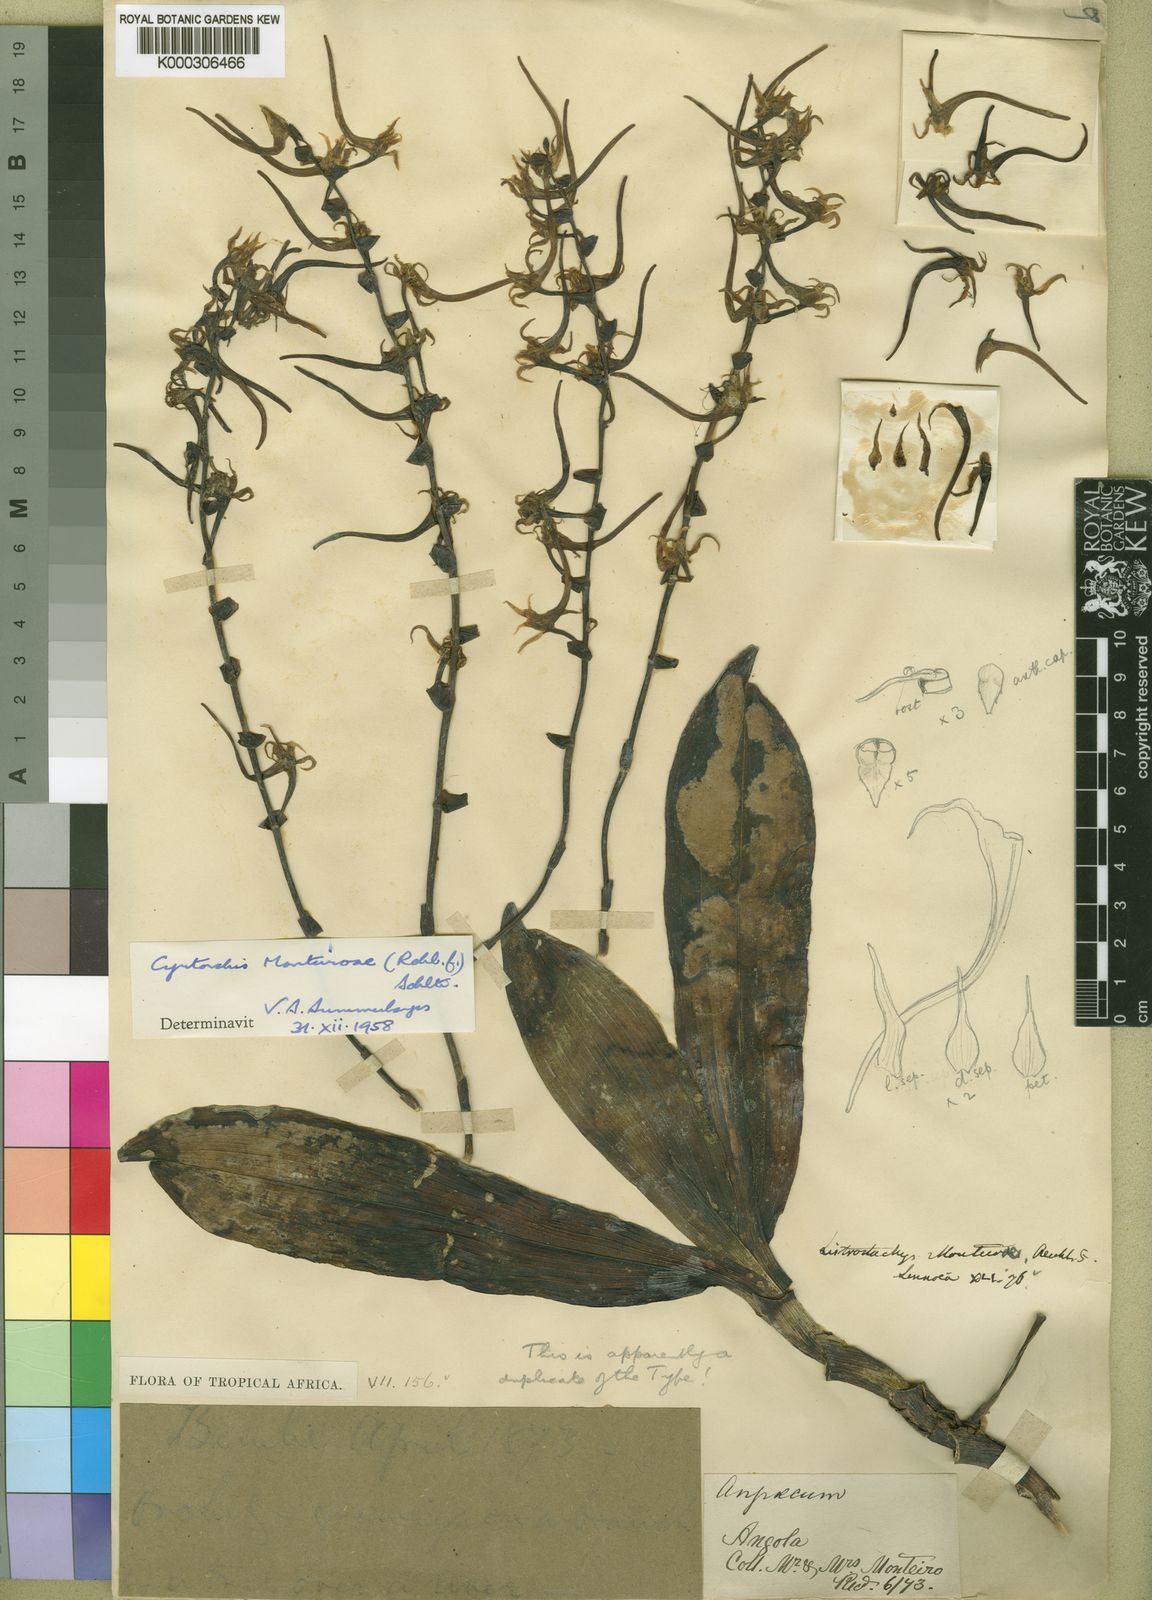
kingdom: Plantae
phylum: Tracheophyta
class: Liliopsida
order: Asparagales
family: Orchidaceae
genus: Cyrtorchis
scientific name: Cyrtorchis
